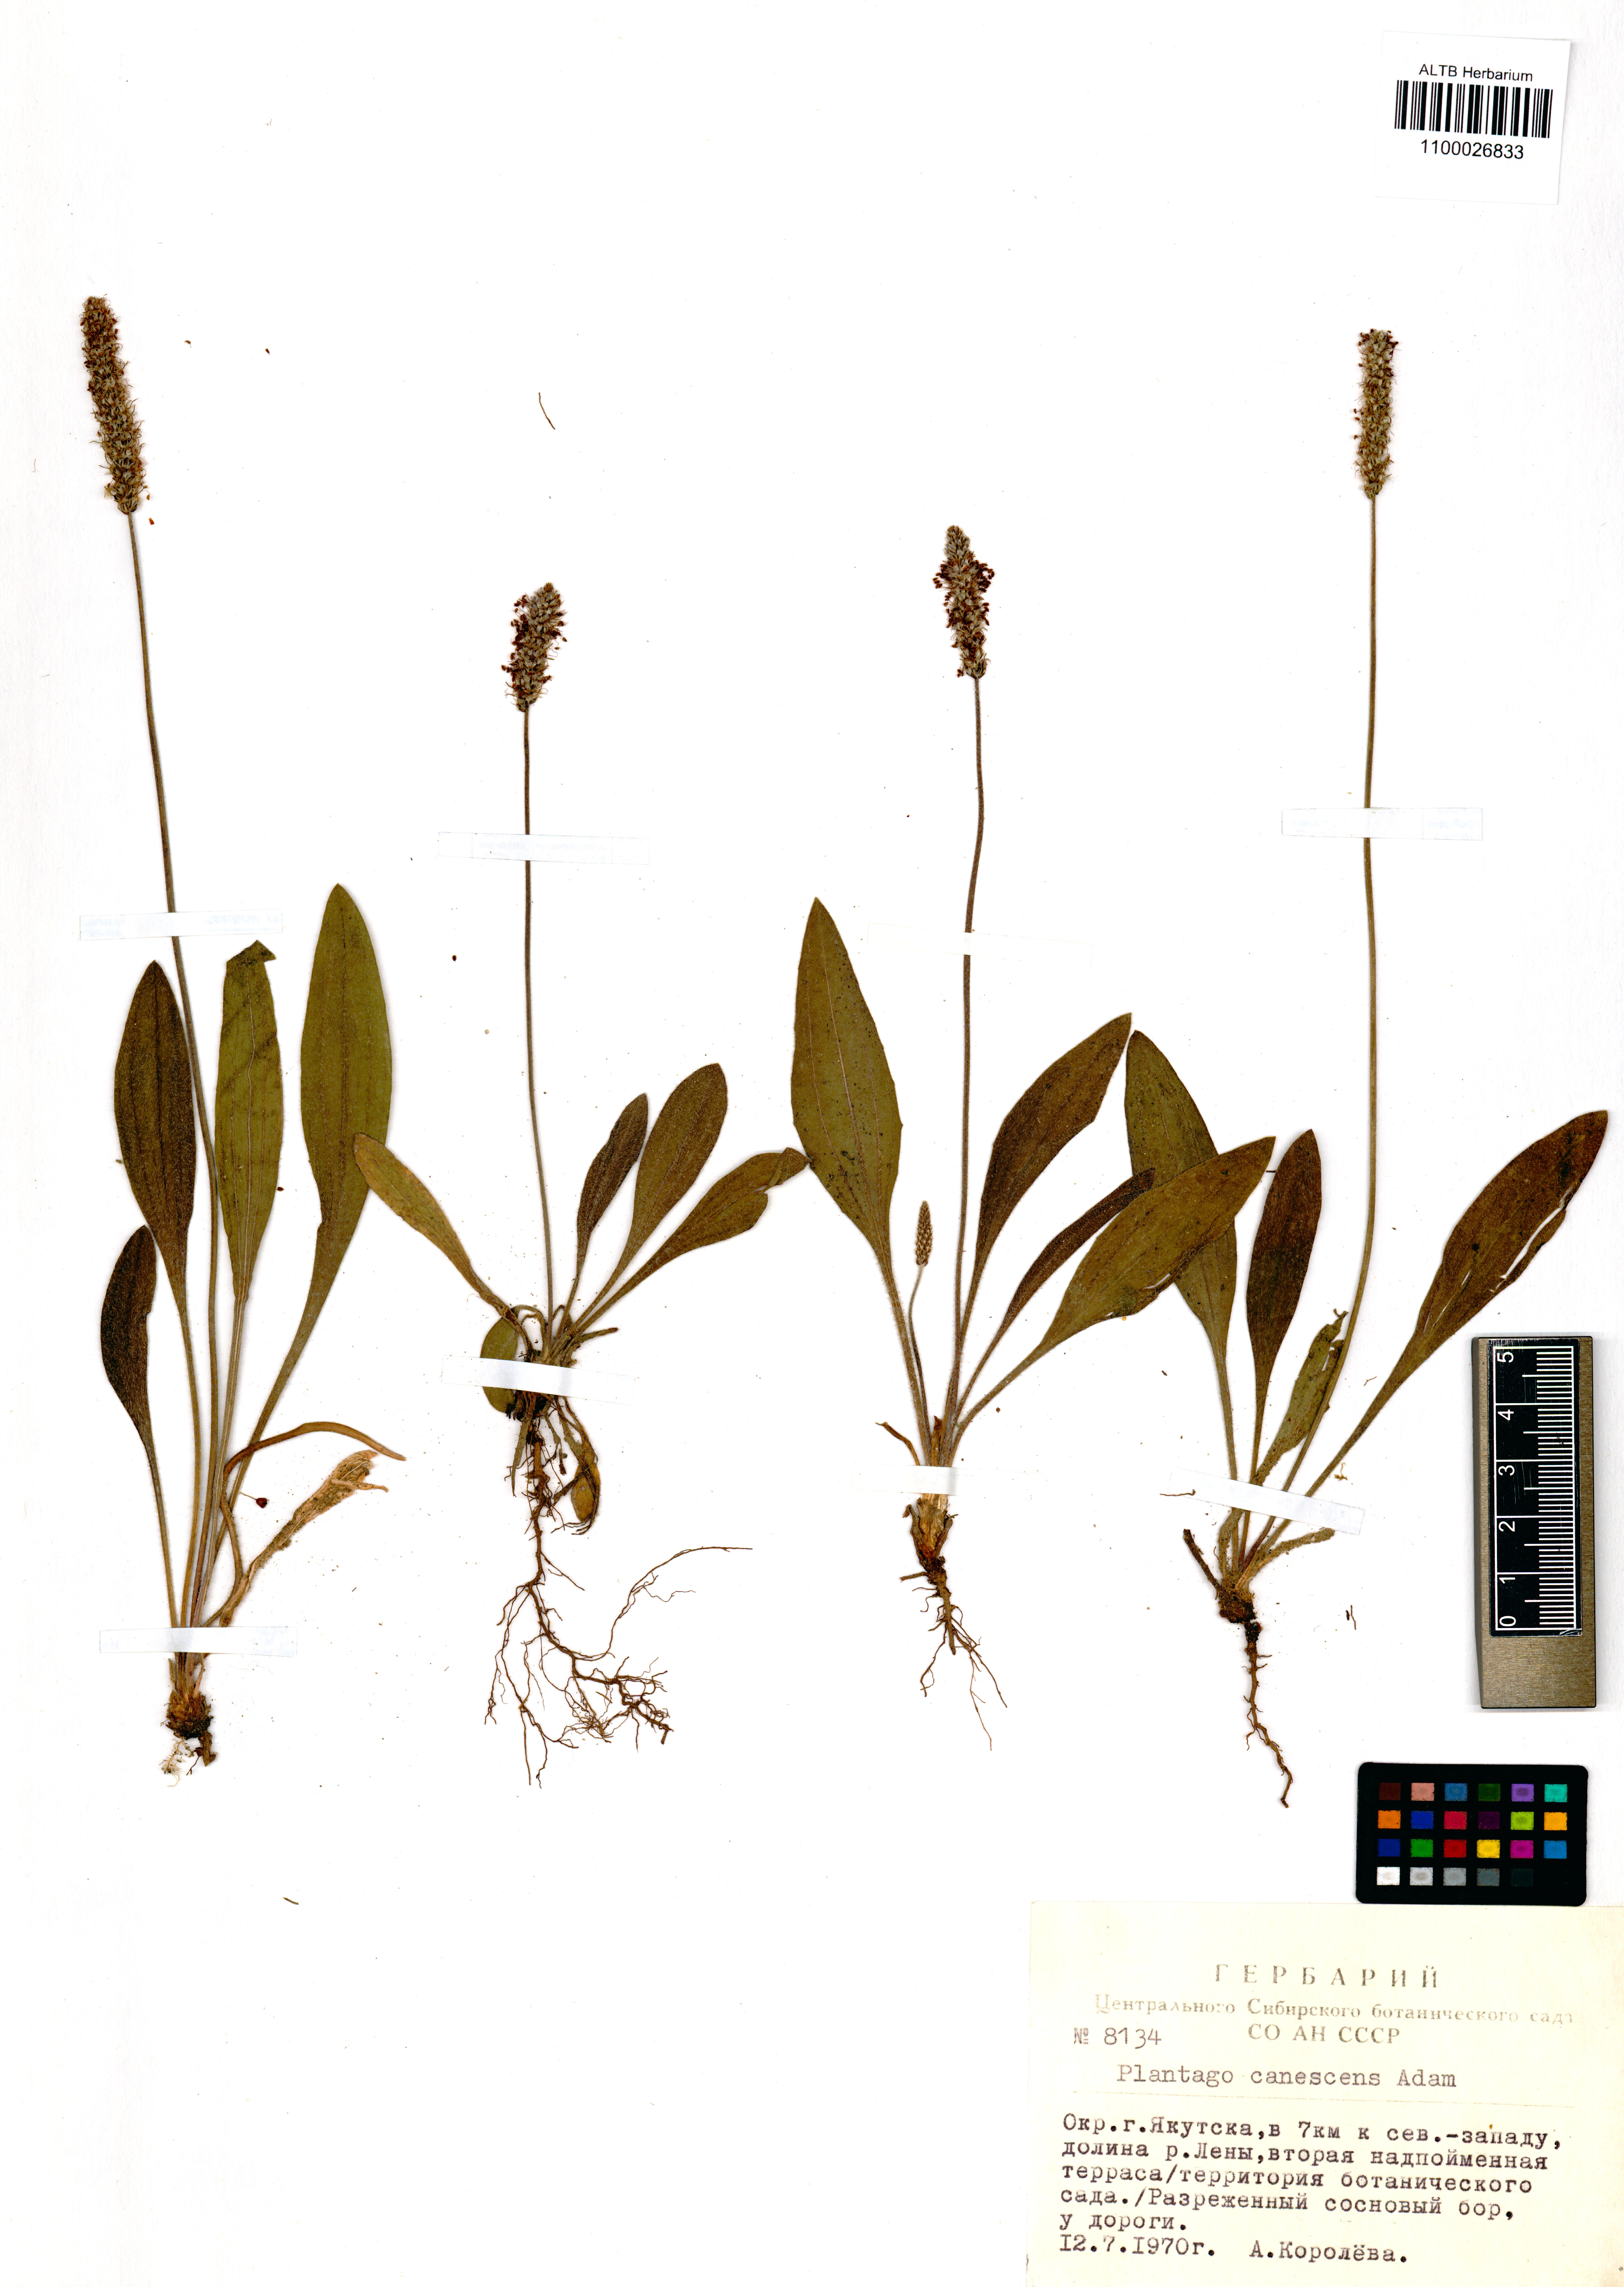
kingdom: Plantae
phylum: Tracheophyta
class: Magnoliopsida
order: Lamiales
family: Plantaginaceae
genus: Plantago
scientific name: Plantago canescens
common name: Siberian plantain
